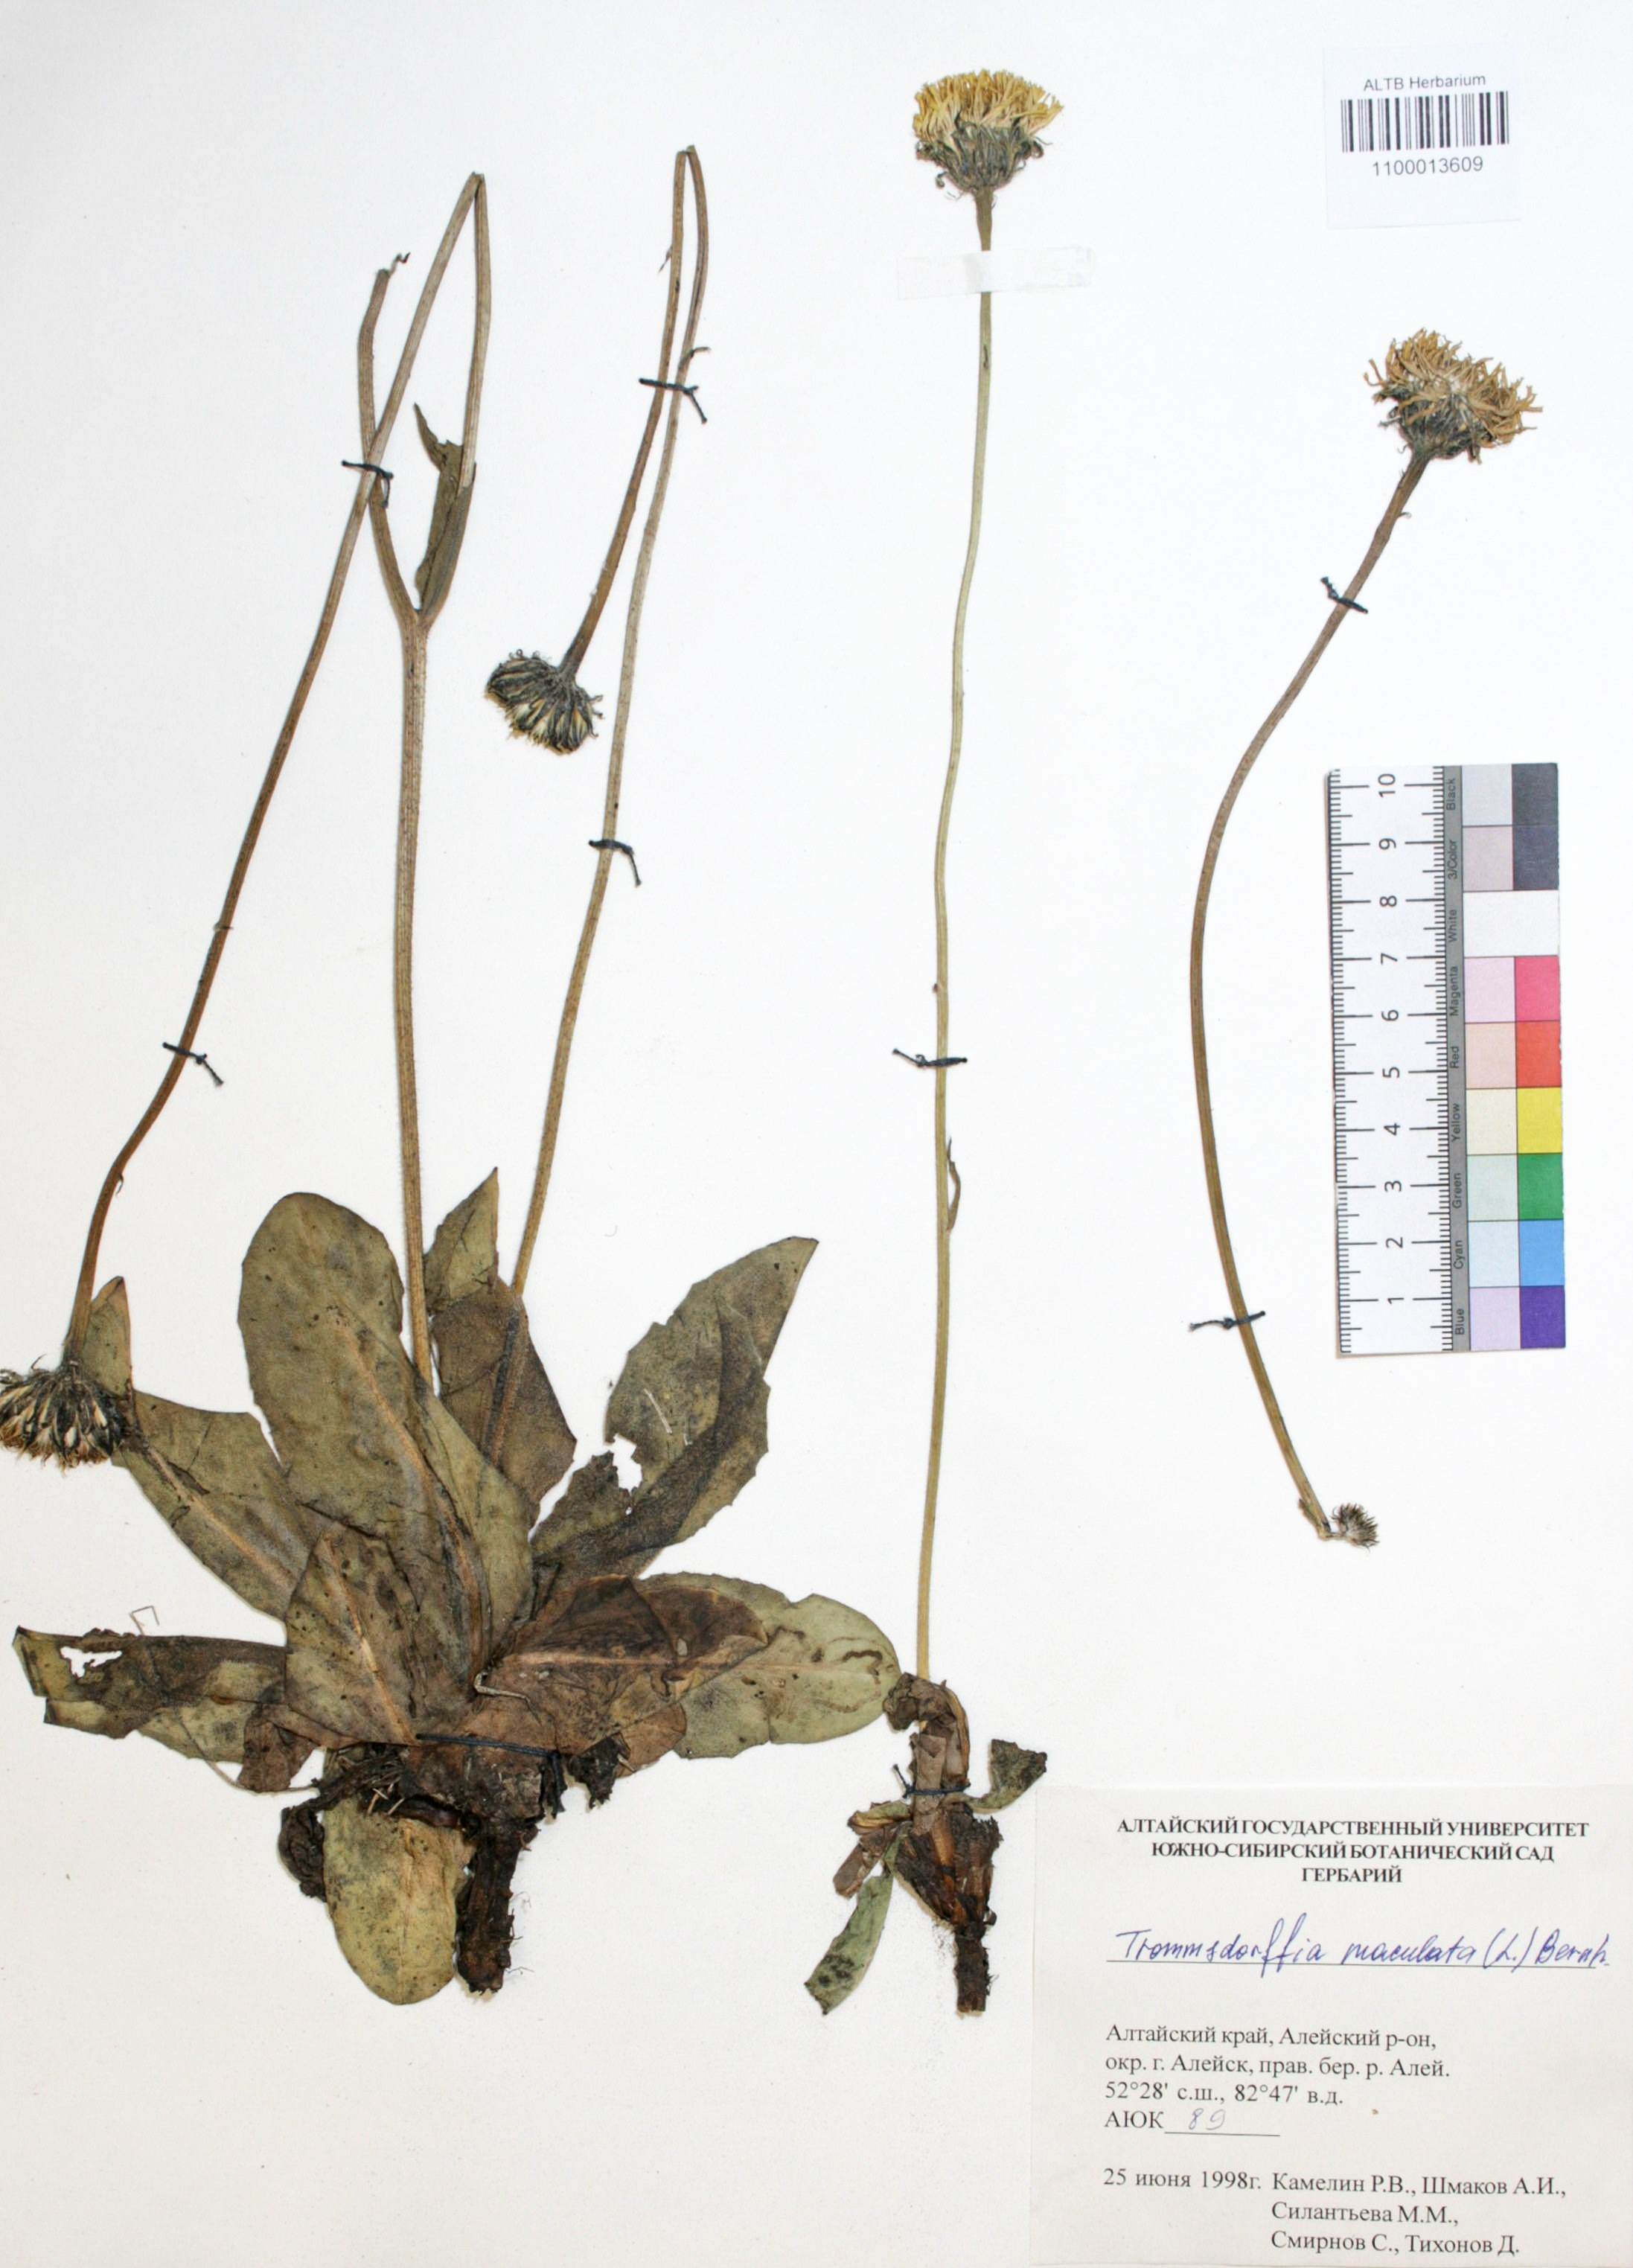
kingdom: Plantae
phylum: Tracheophyta
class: Magnoliopsida
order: Asterales
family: Asteraceae
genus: Trommsdorffia
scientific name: Trommsdorffia maculata
